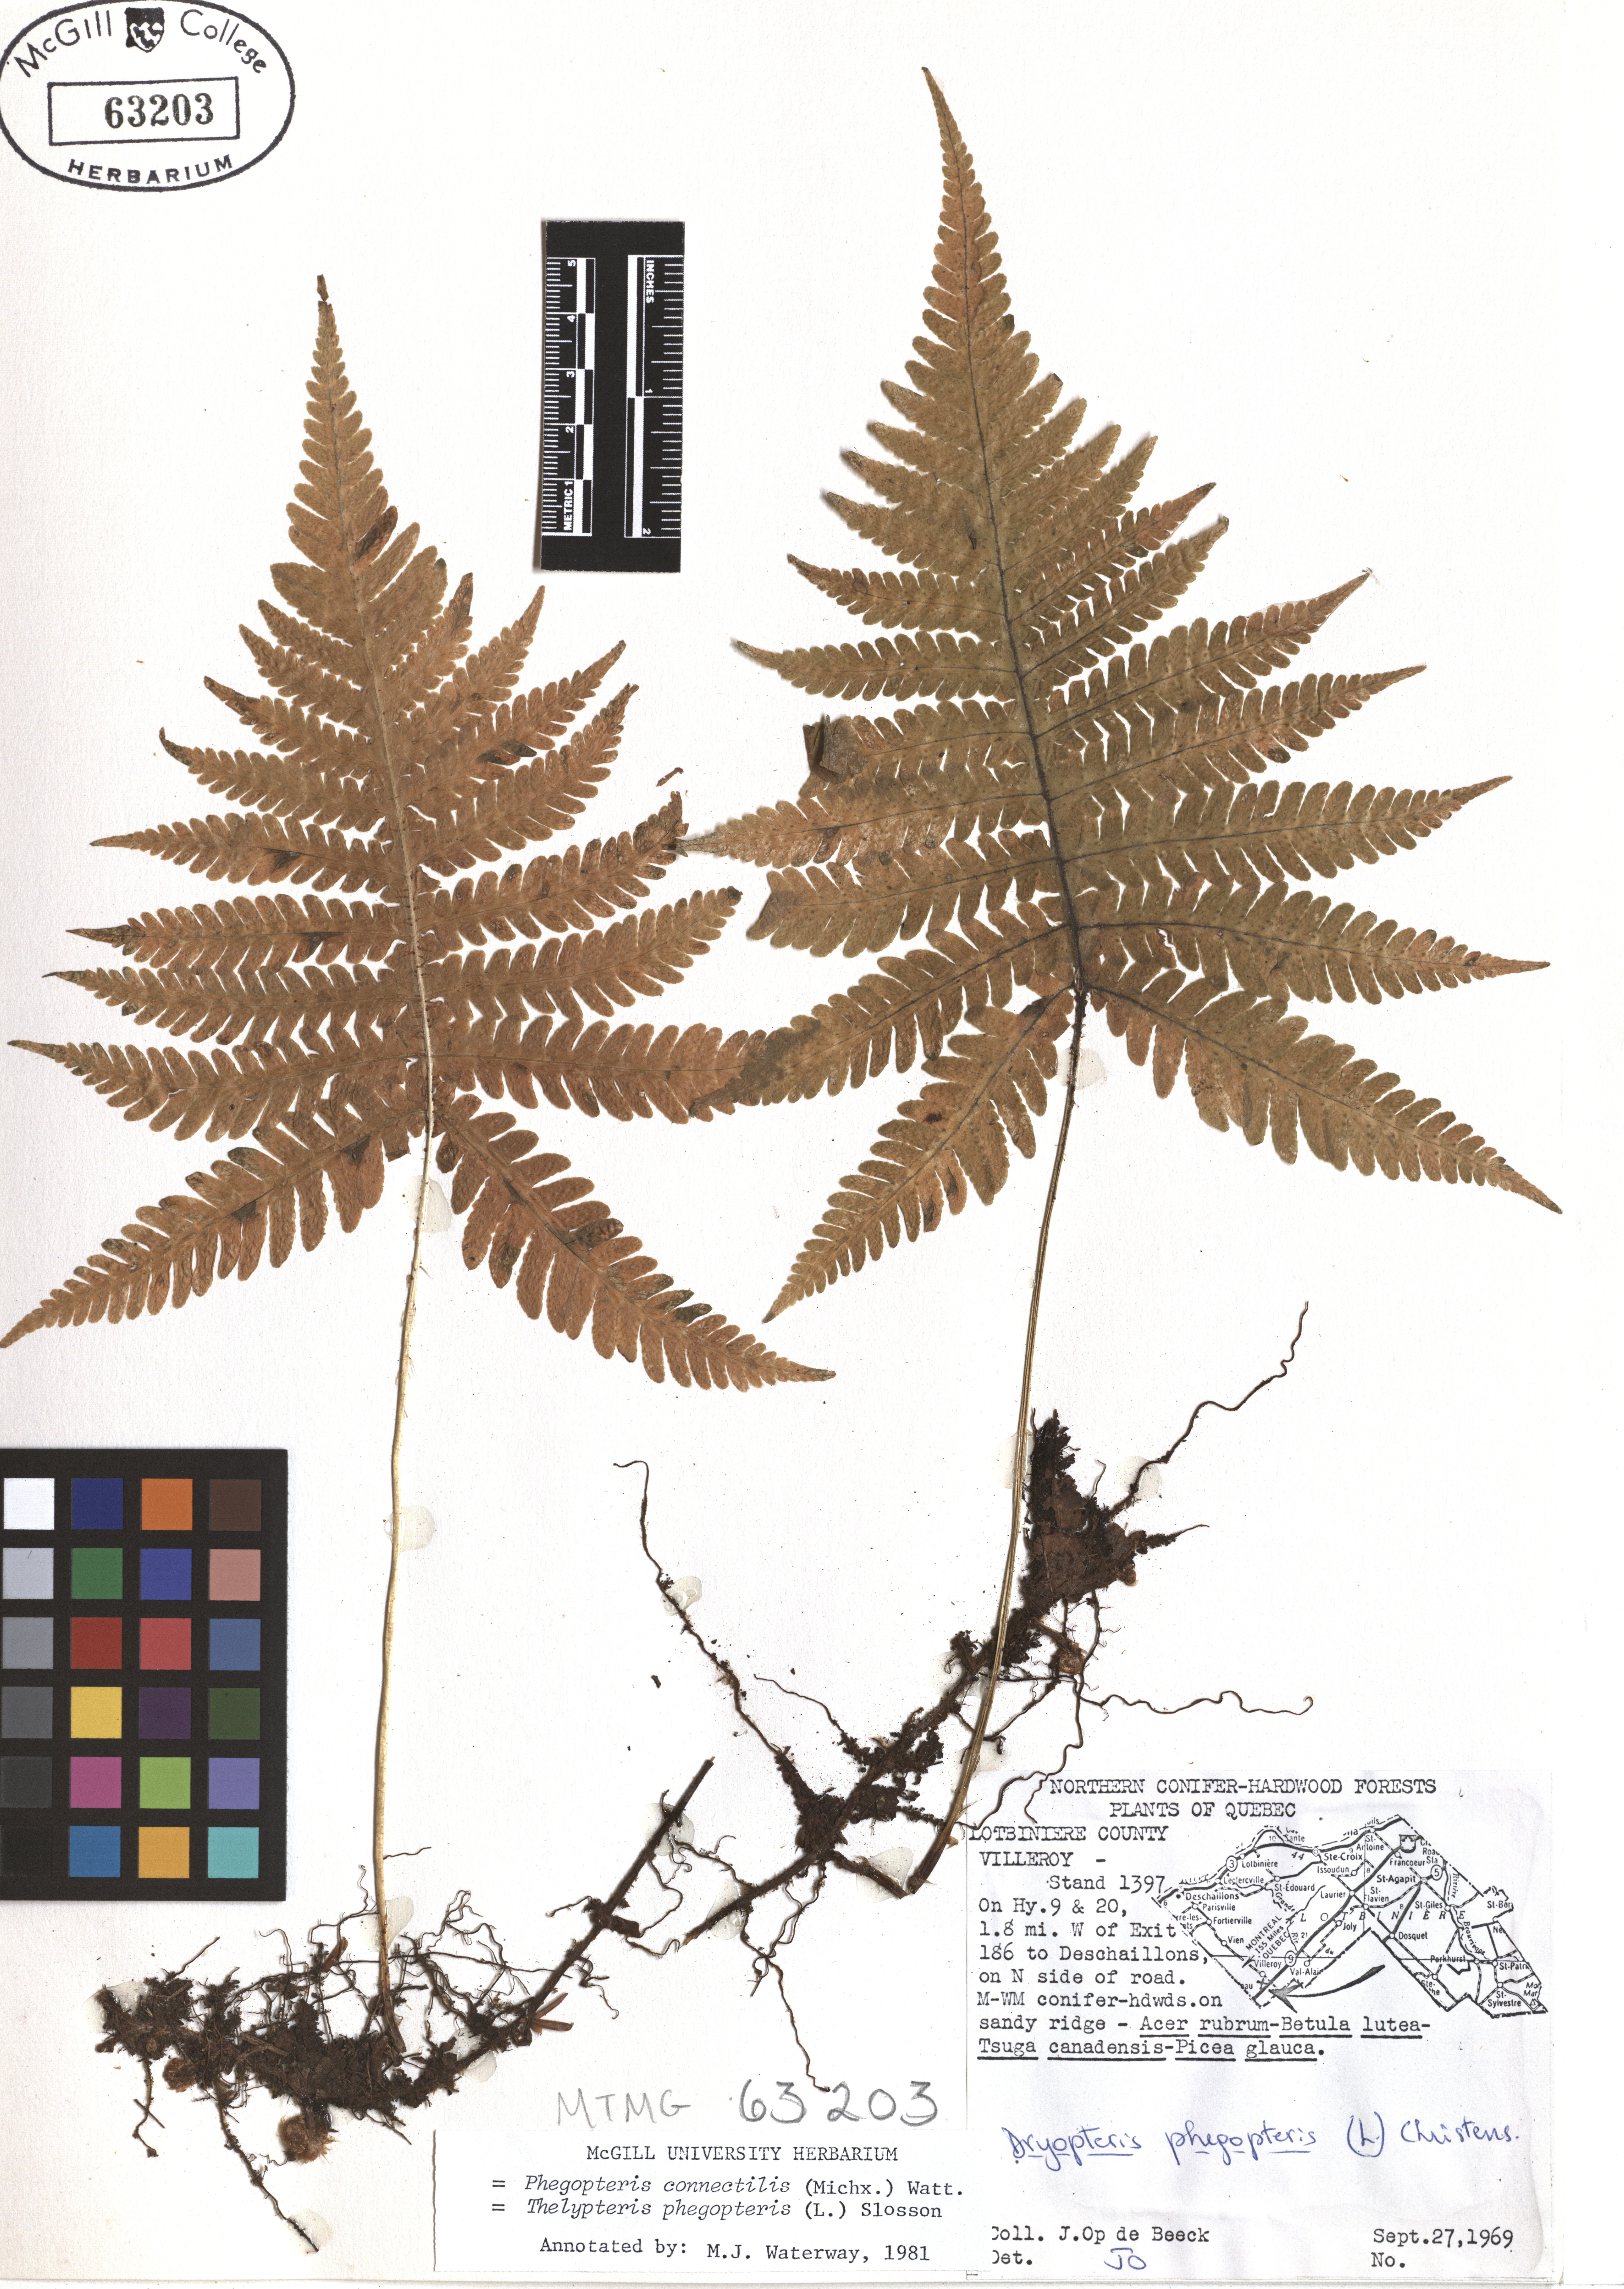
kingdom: Plantae
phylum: Tracheophyta
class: Polypodiopsida
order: Polypodiales
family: Thelypteridaceae
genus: Phegopteris
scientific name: Phegopteris connectilis
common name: Beech fern
